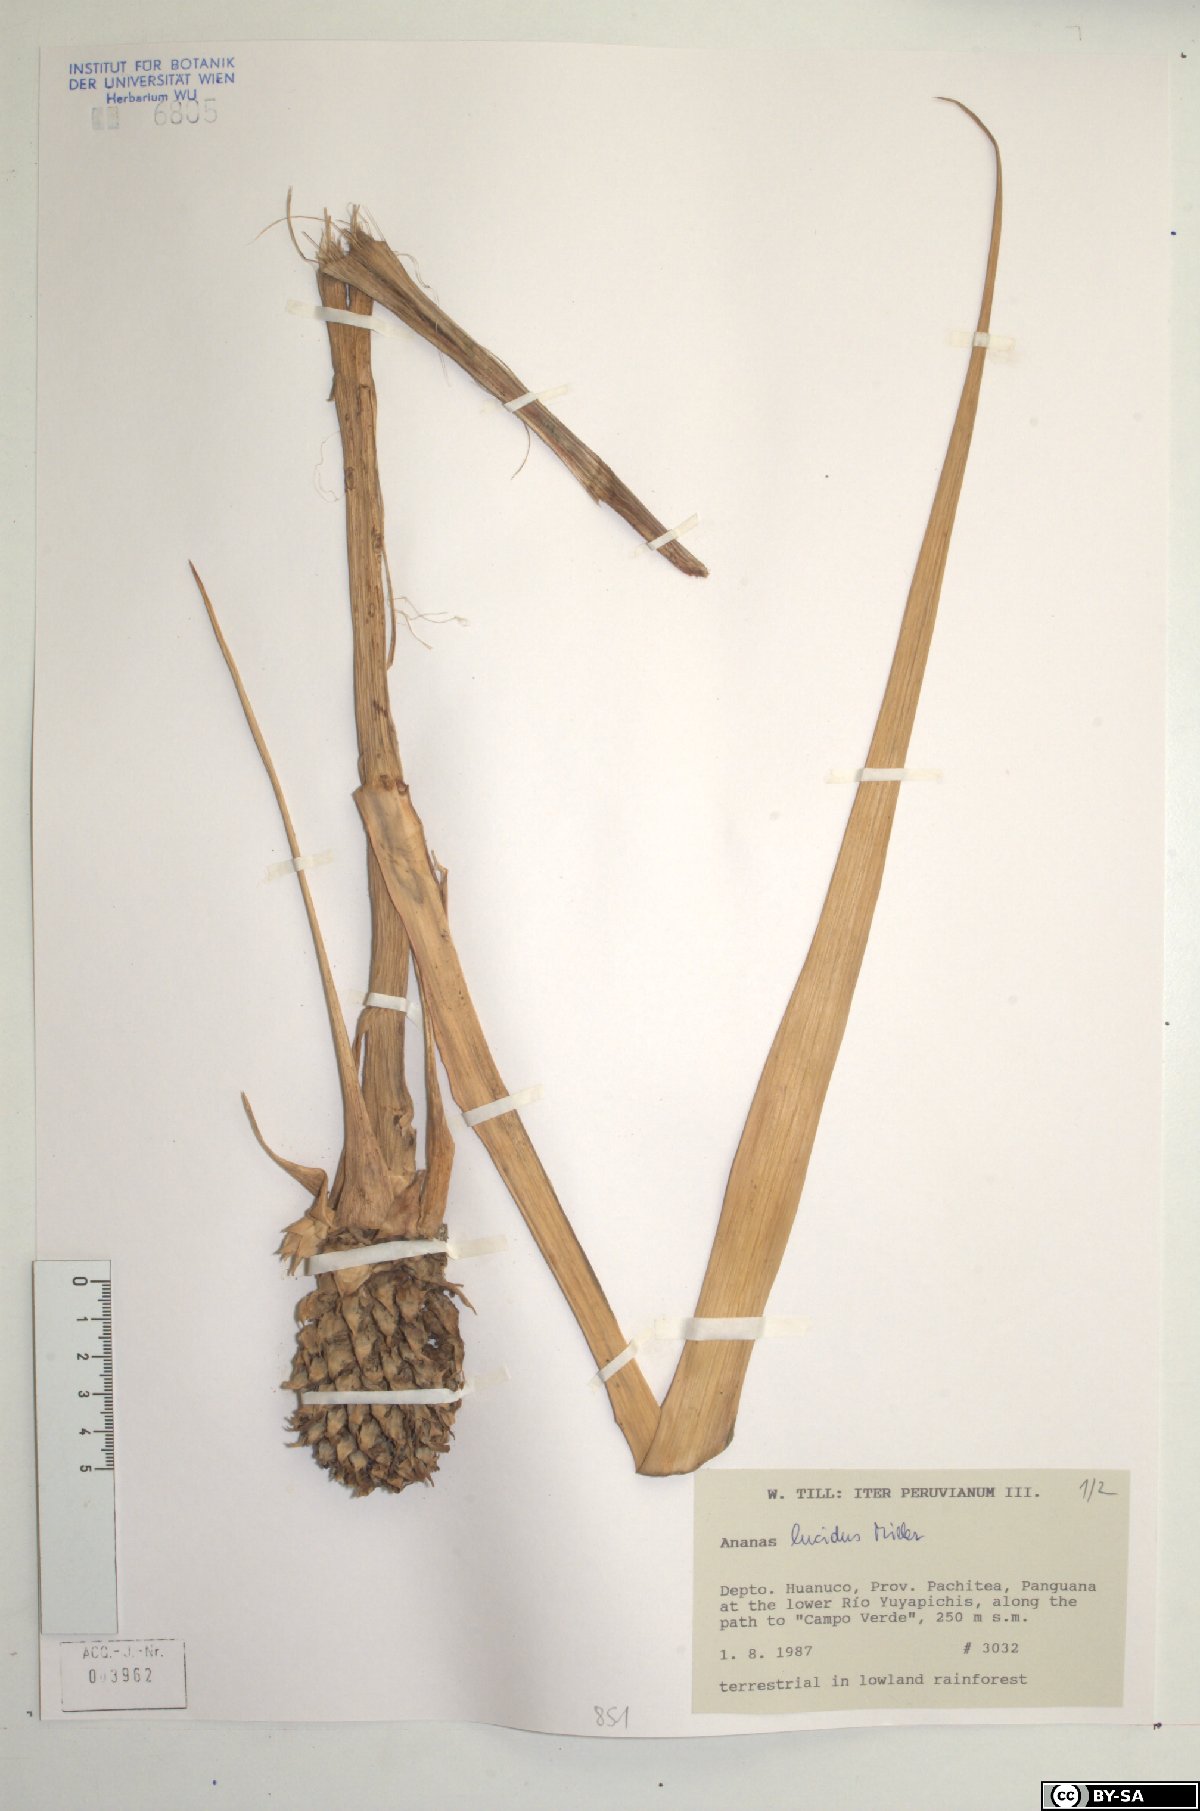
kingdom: Plantae
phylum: Tracheophyta
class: Liliopsida
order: Poales
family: Bromeliaceae
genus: Ananas
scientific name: Ananas comosus
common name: Pineapple
